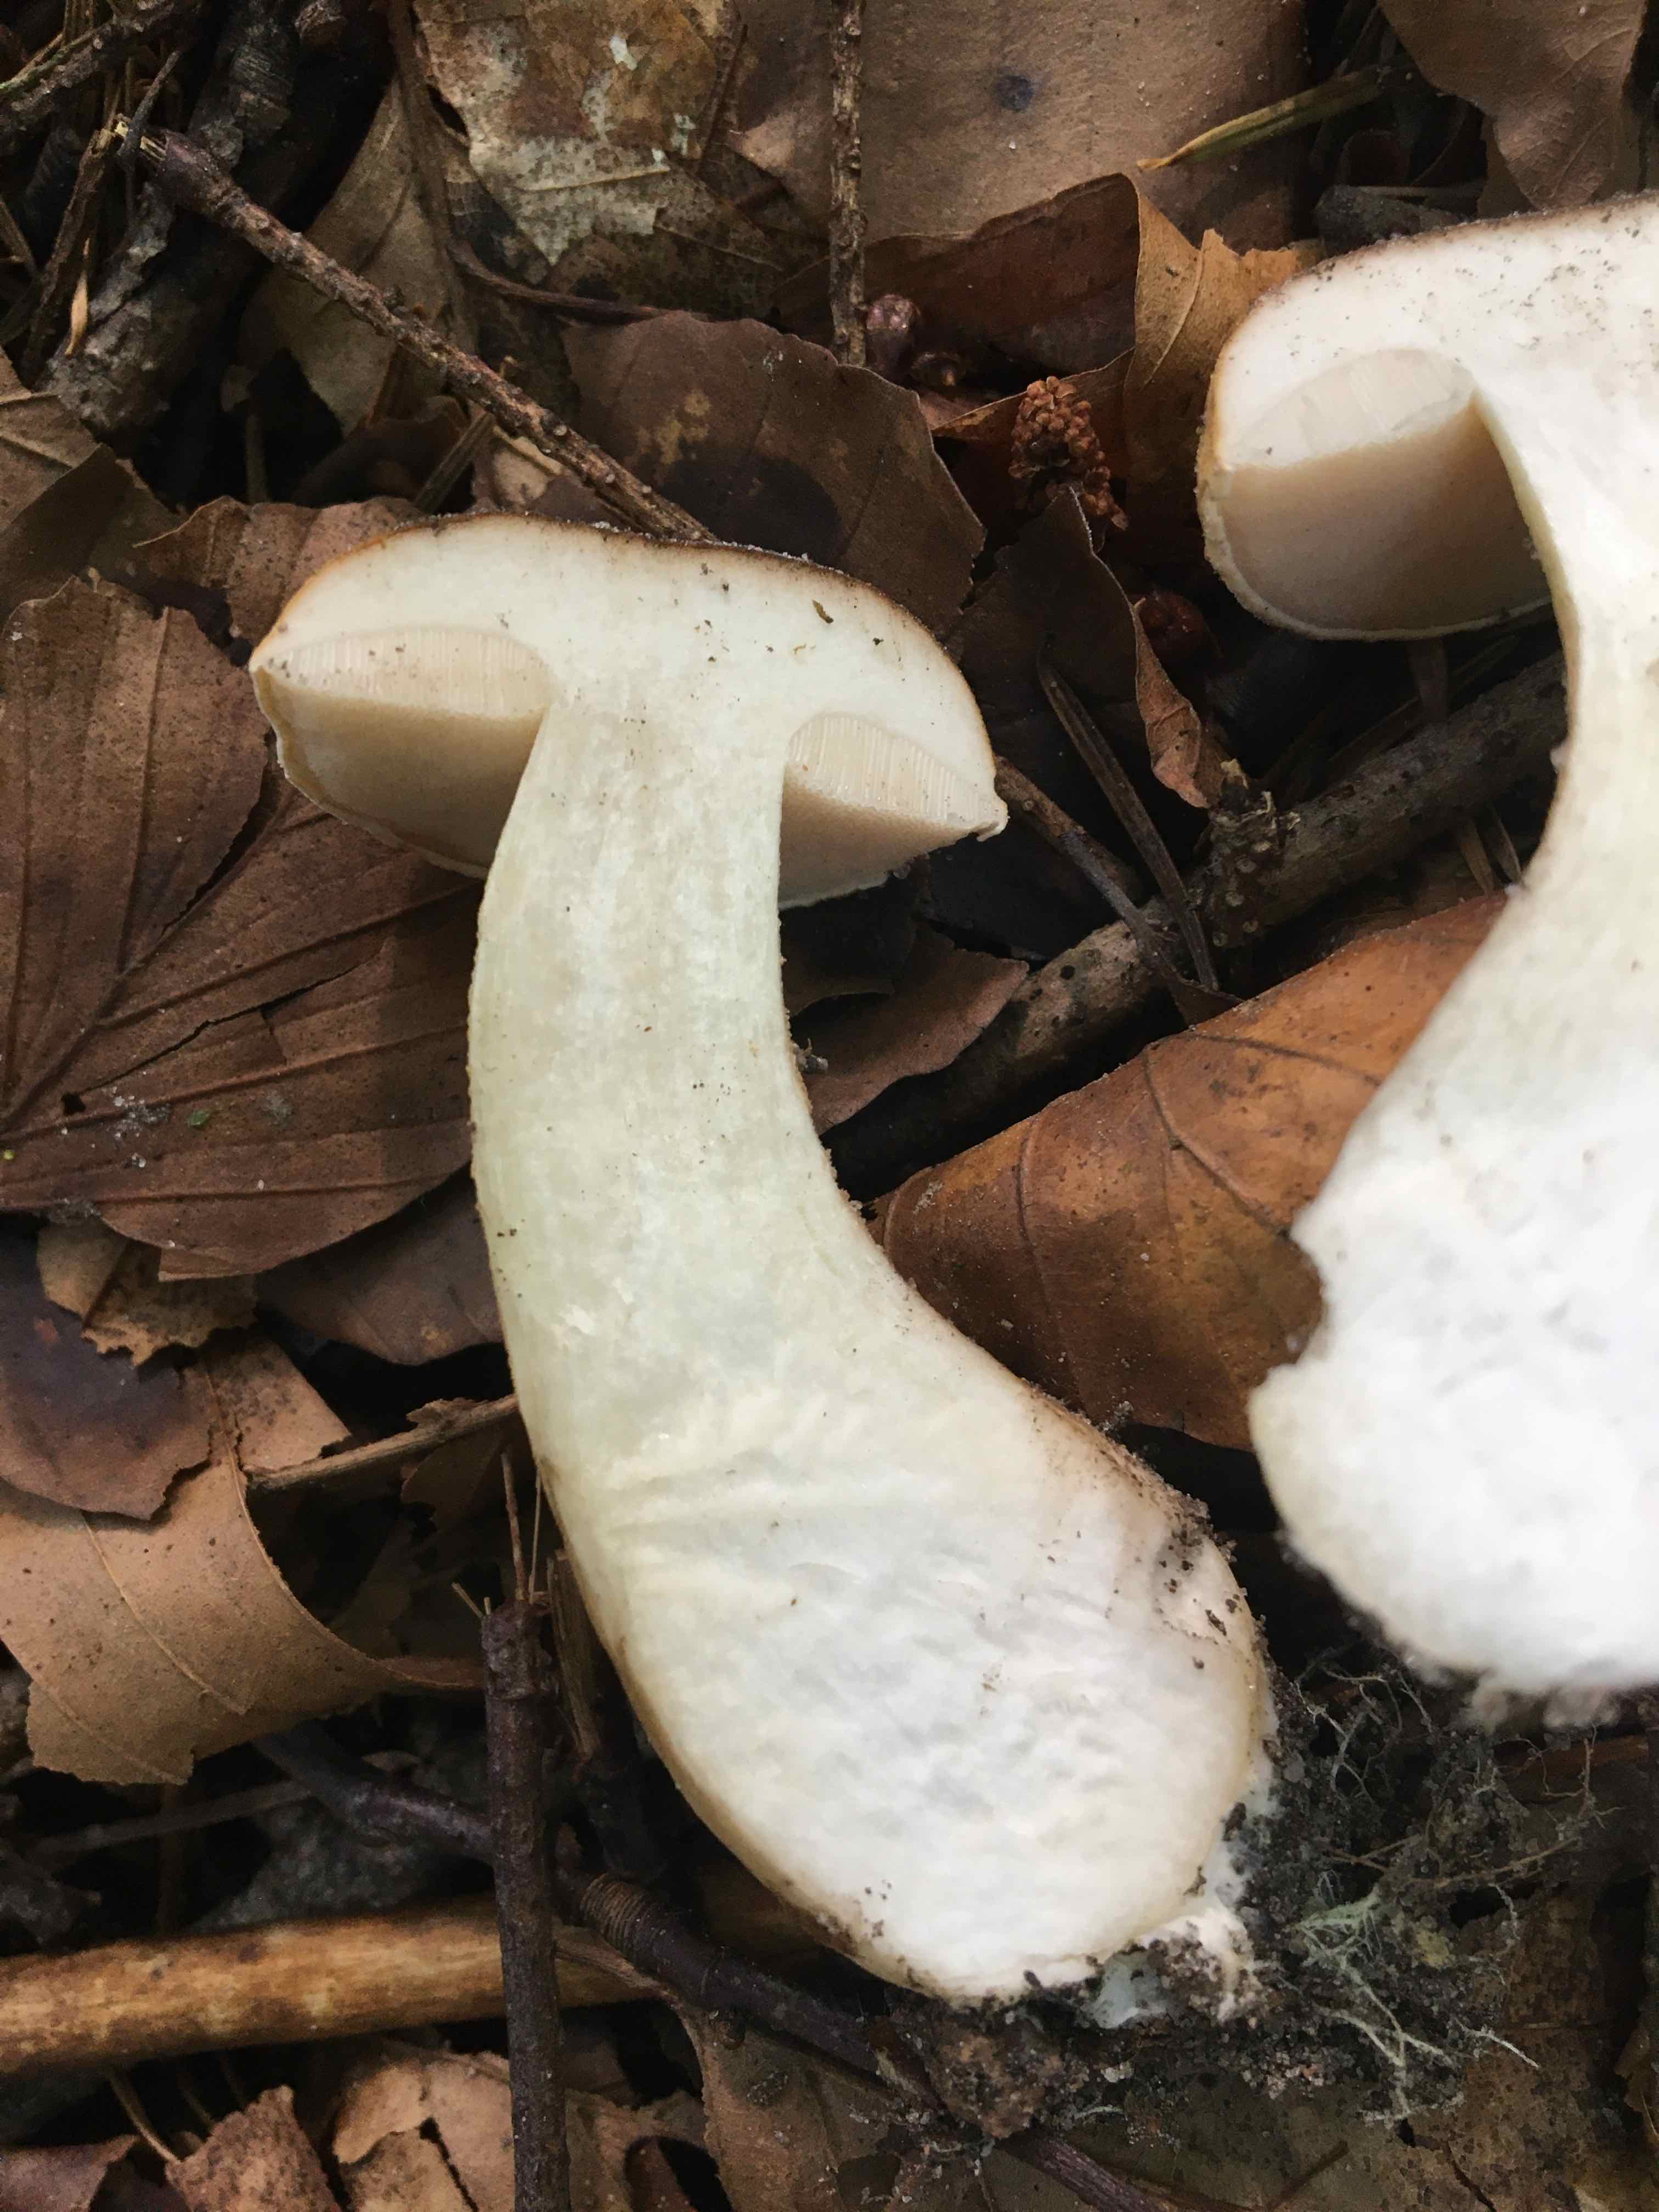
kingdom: Fungi
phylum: Basidiomycota
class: Agaricomycetes
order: Boletales
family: Boletaceae
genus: Tylopilus
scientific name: Tylopilus felleus
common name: galderørhat
